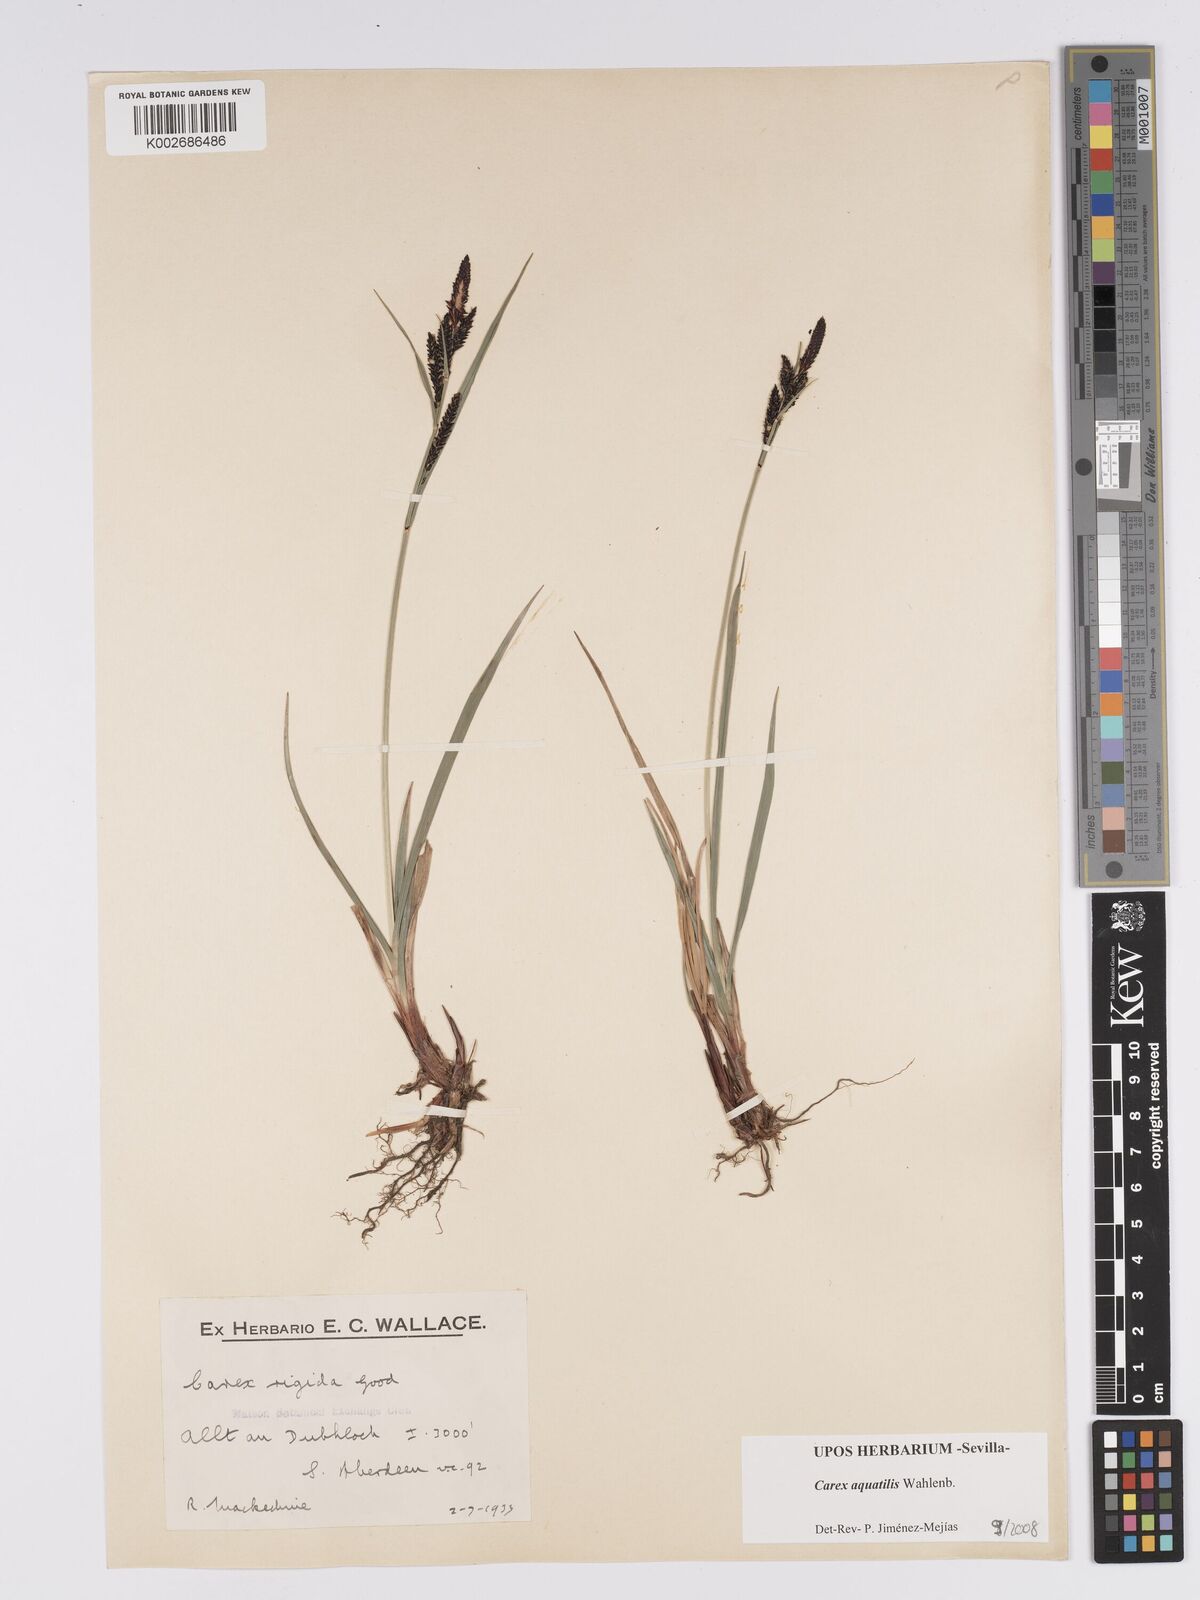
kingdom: Plantae
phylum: Tracheophyta
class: Liliopsida
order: Poales
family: Cyperaceae
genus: Carex
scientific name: Carex aquatilis
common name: Water sedge
